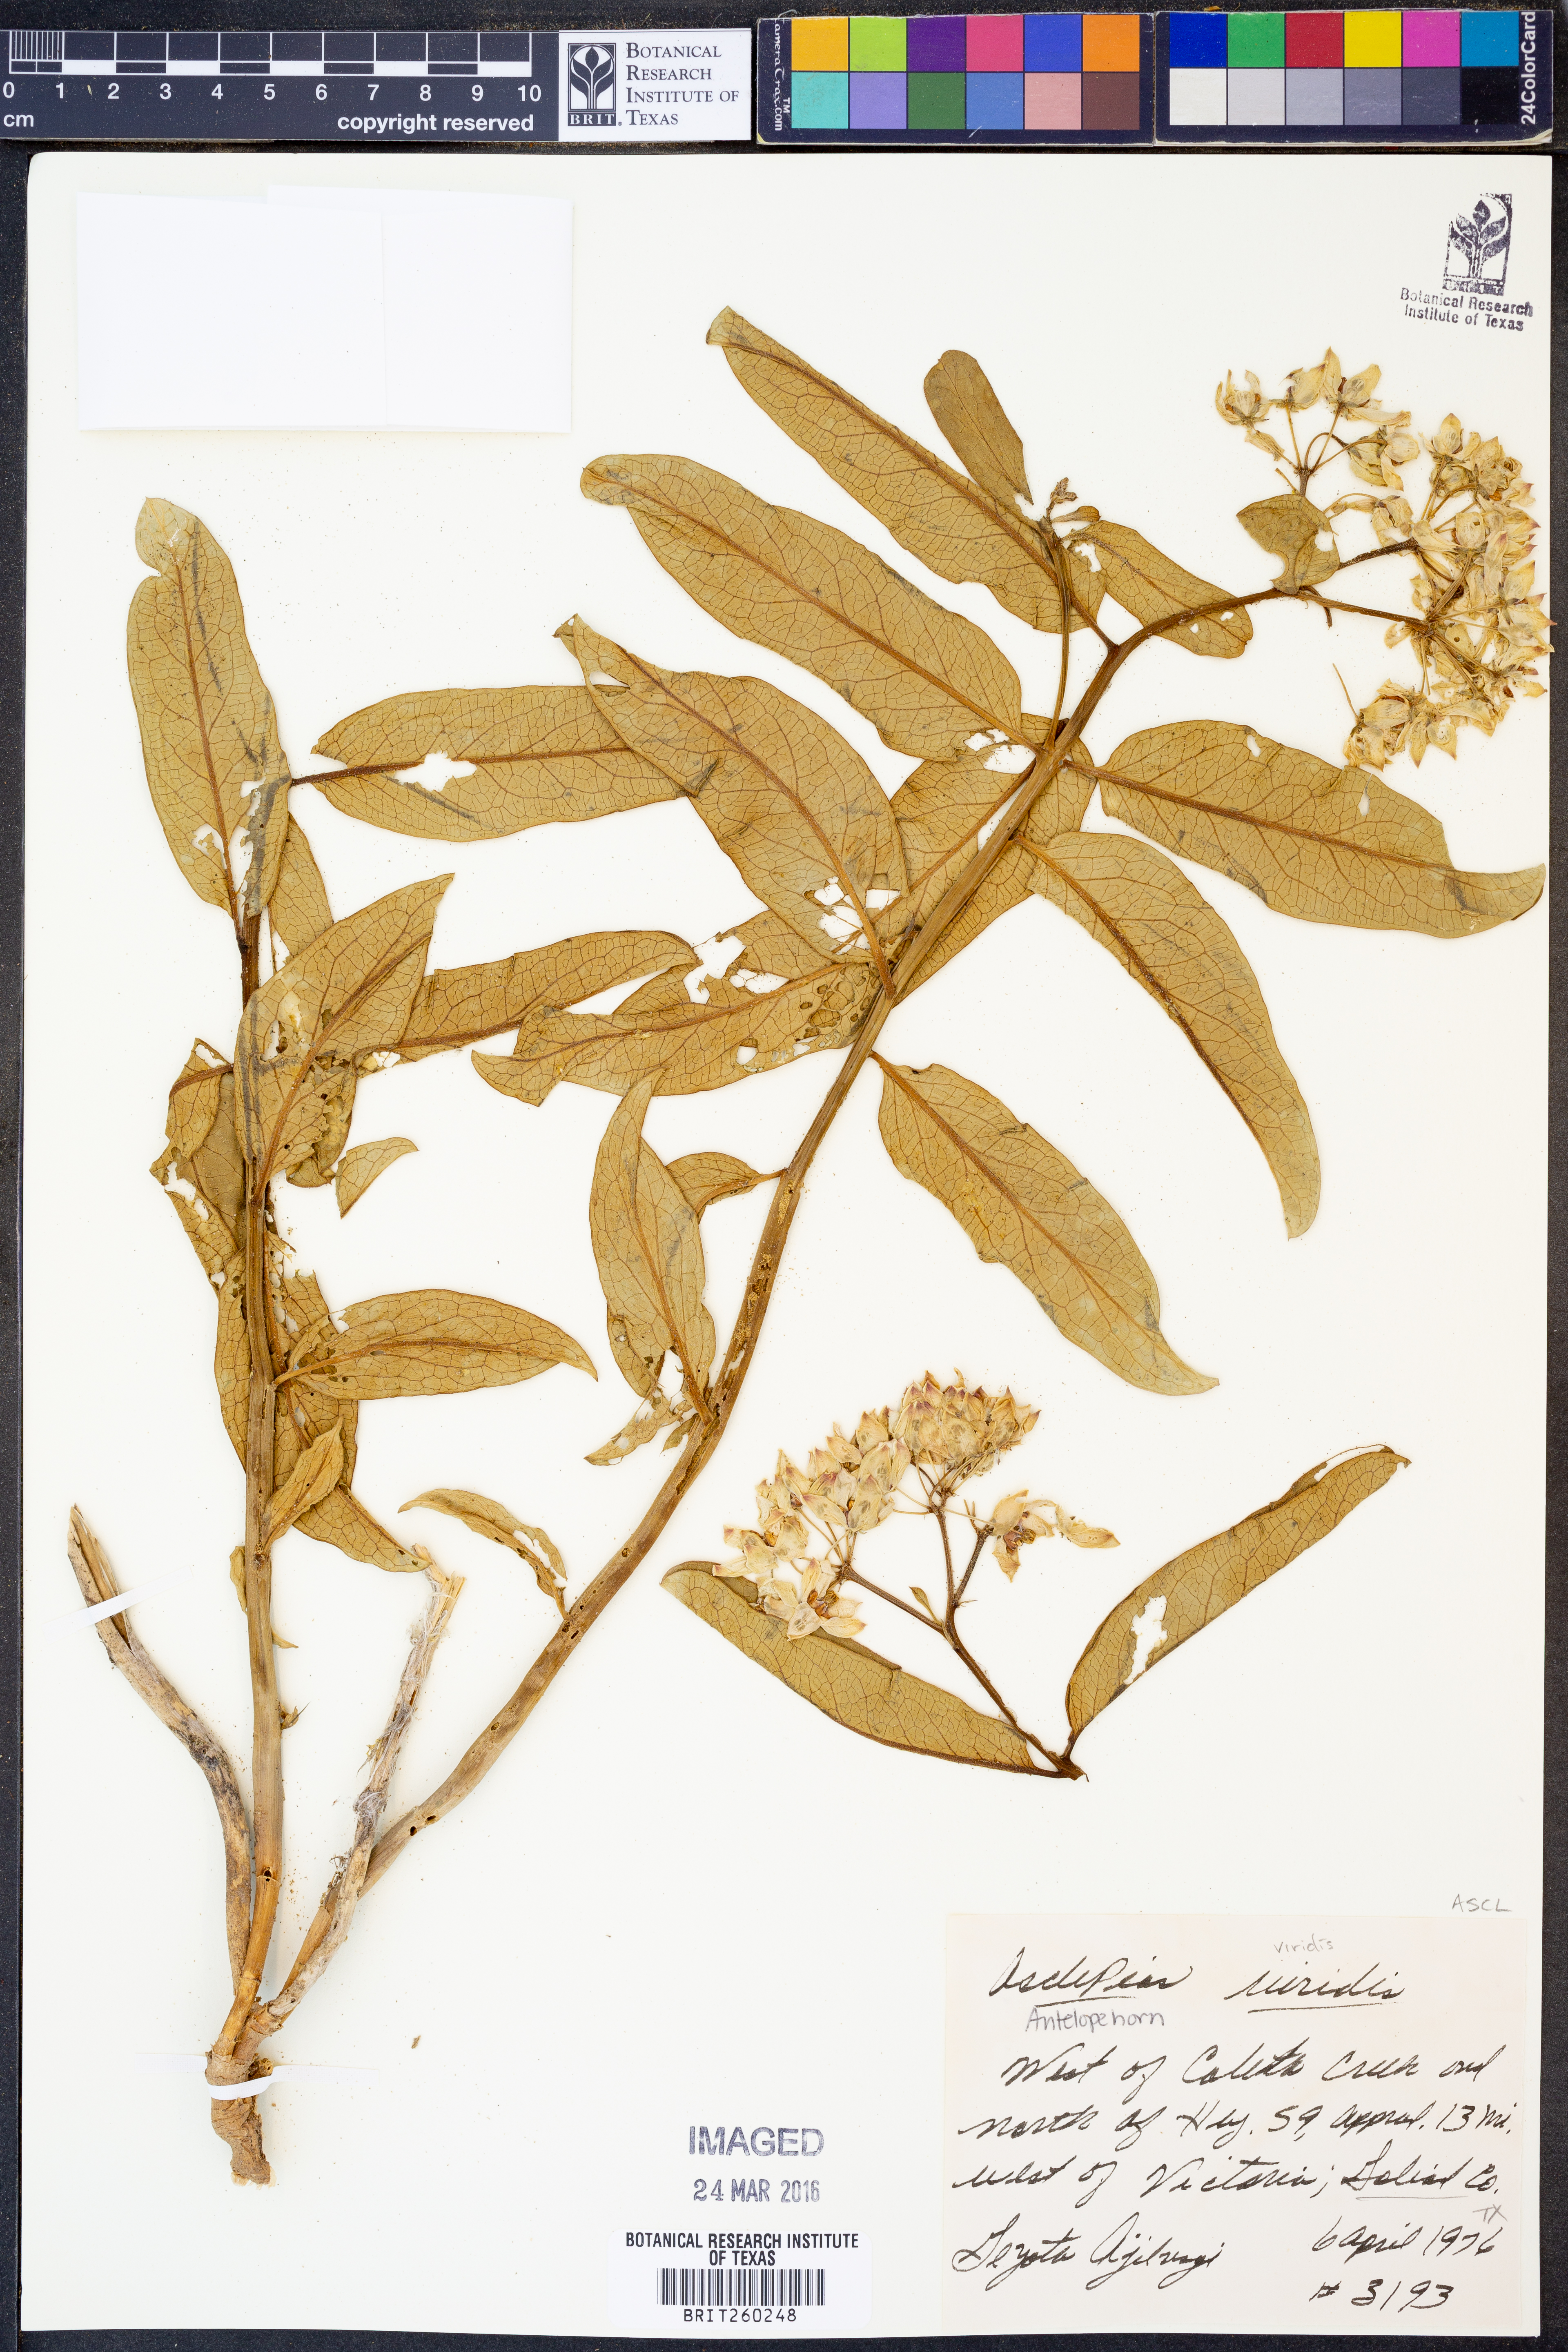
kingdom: Plantae
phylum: Tracheophyta
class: Magnoliopsida
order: Gentianales
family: Apocynaceae
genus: Asclepias
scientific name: Asclepias viridis
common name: Antelope-horns
